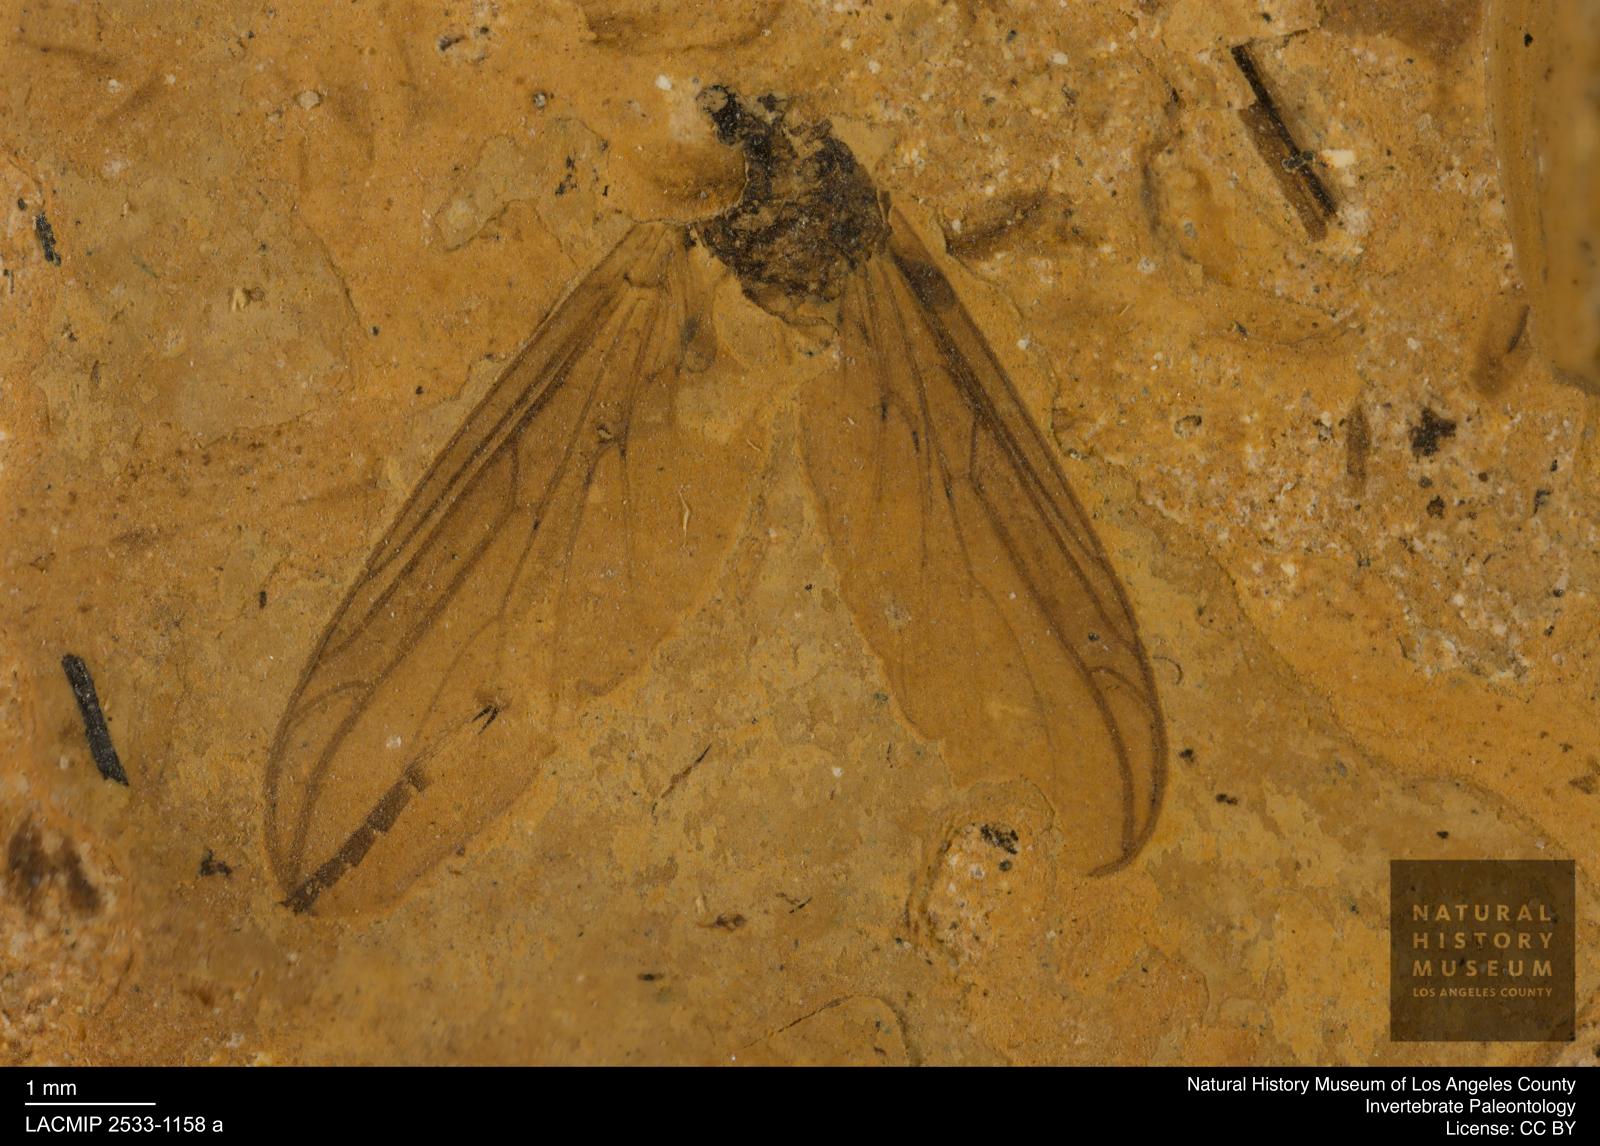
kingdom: Animalia
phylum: Arthropoda
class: Insecta
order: Diptera
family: Bibionidae
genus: Plecia
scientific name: Plecia pinguis
